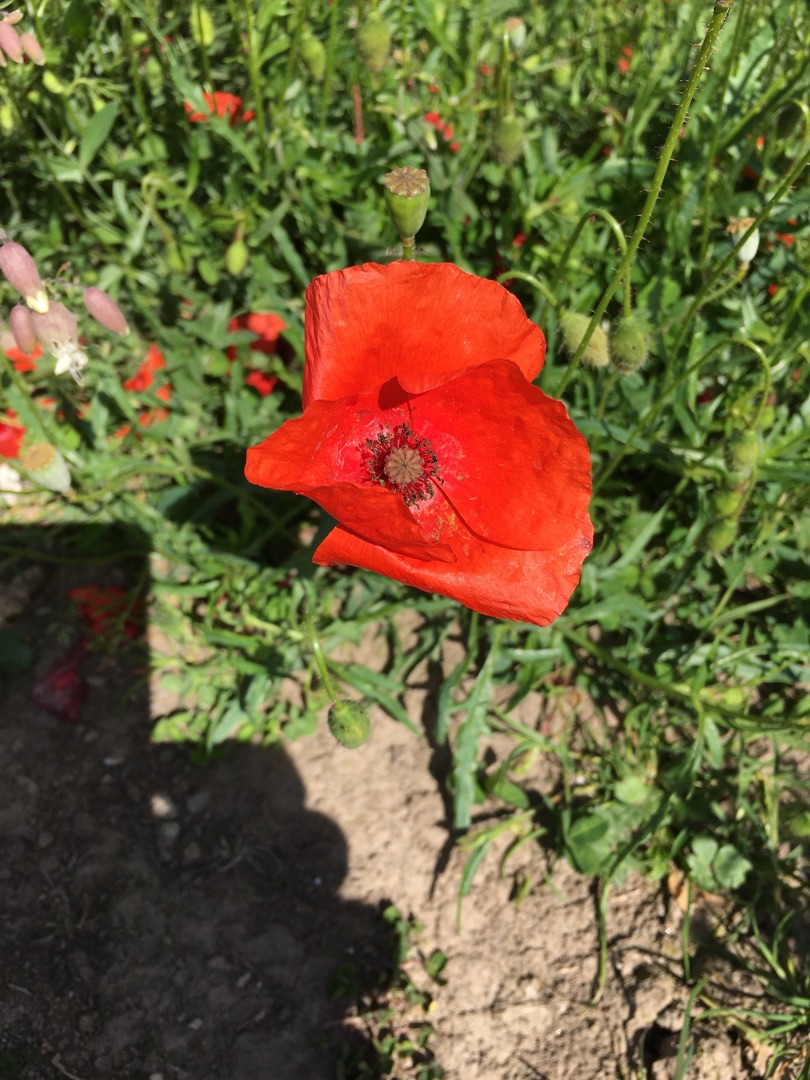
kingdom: Plantae
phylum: Tracheophyta
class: Magnoliopsida
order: Ranunculales
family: Papaveraceae
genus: Papaver
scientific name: Papaver rhoeas
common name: Korn-valmue
